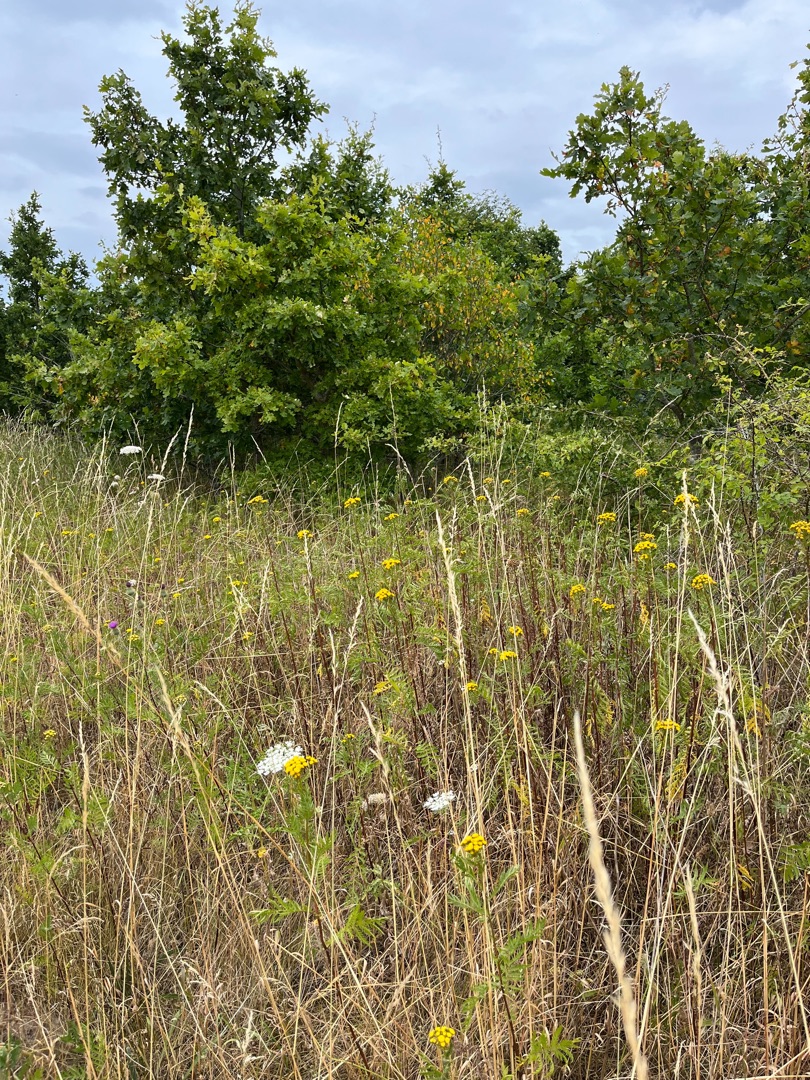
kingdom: Plantae
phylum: Tracheophyta
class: Magnoliopsida
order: Asterales
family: Asteraceae
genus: Tanacetum
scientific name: Tanacetum vulgare
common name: Rejnfan
